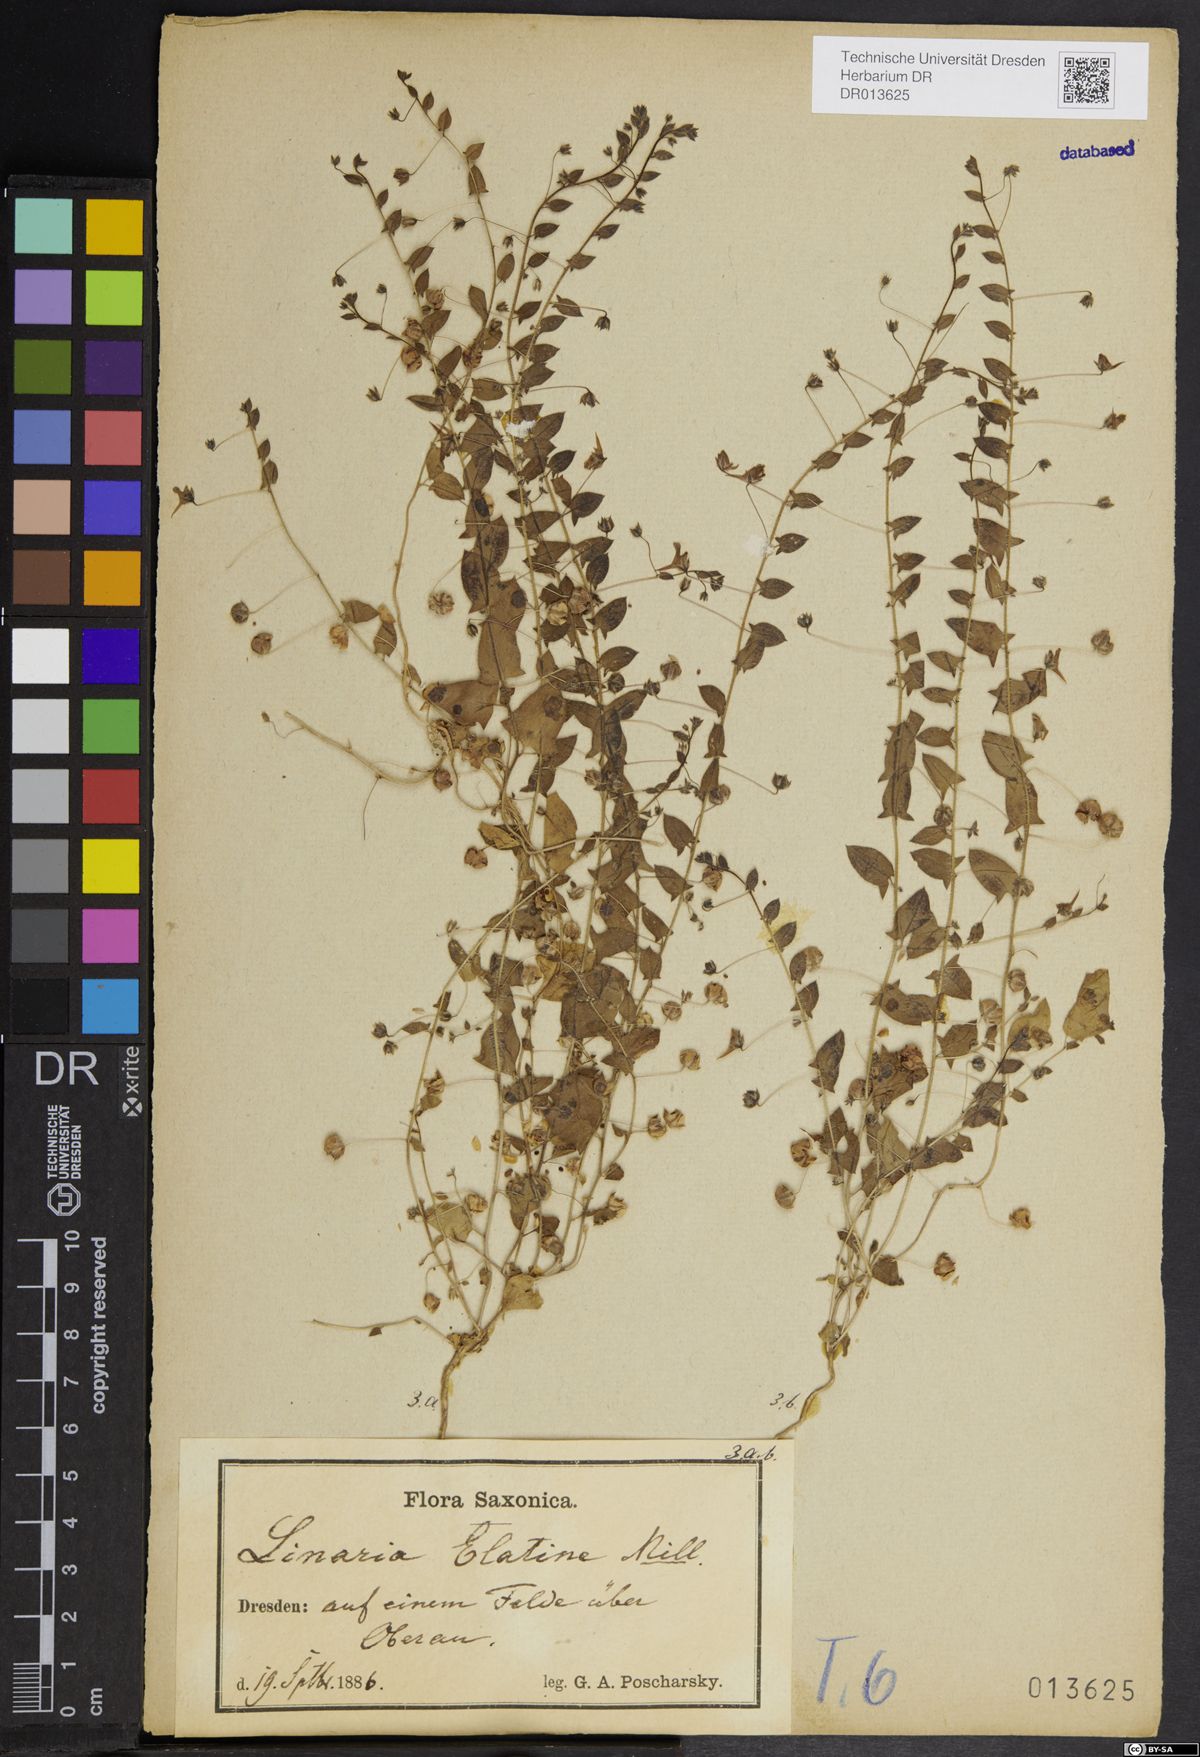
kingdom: Plantae
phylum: Tracheophyta
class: Magnoliopsida
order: Lamiales
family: Plantaginaceae
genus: Kickxia
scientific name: Kickxia elatine
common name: Sharp-leaved fluellen
